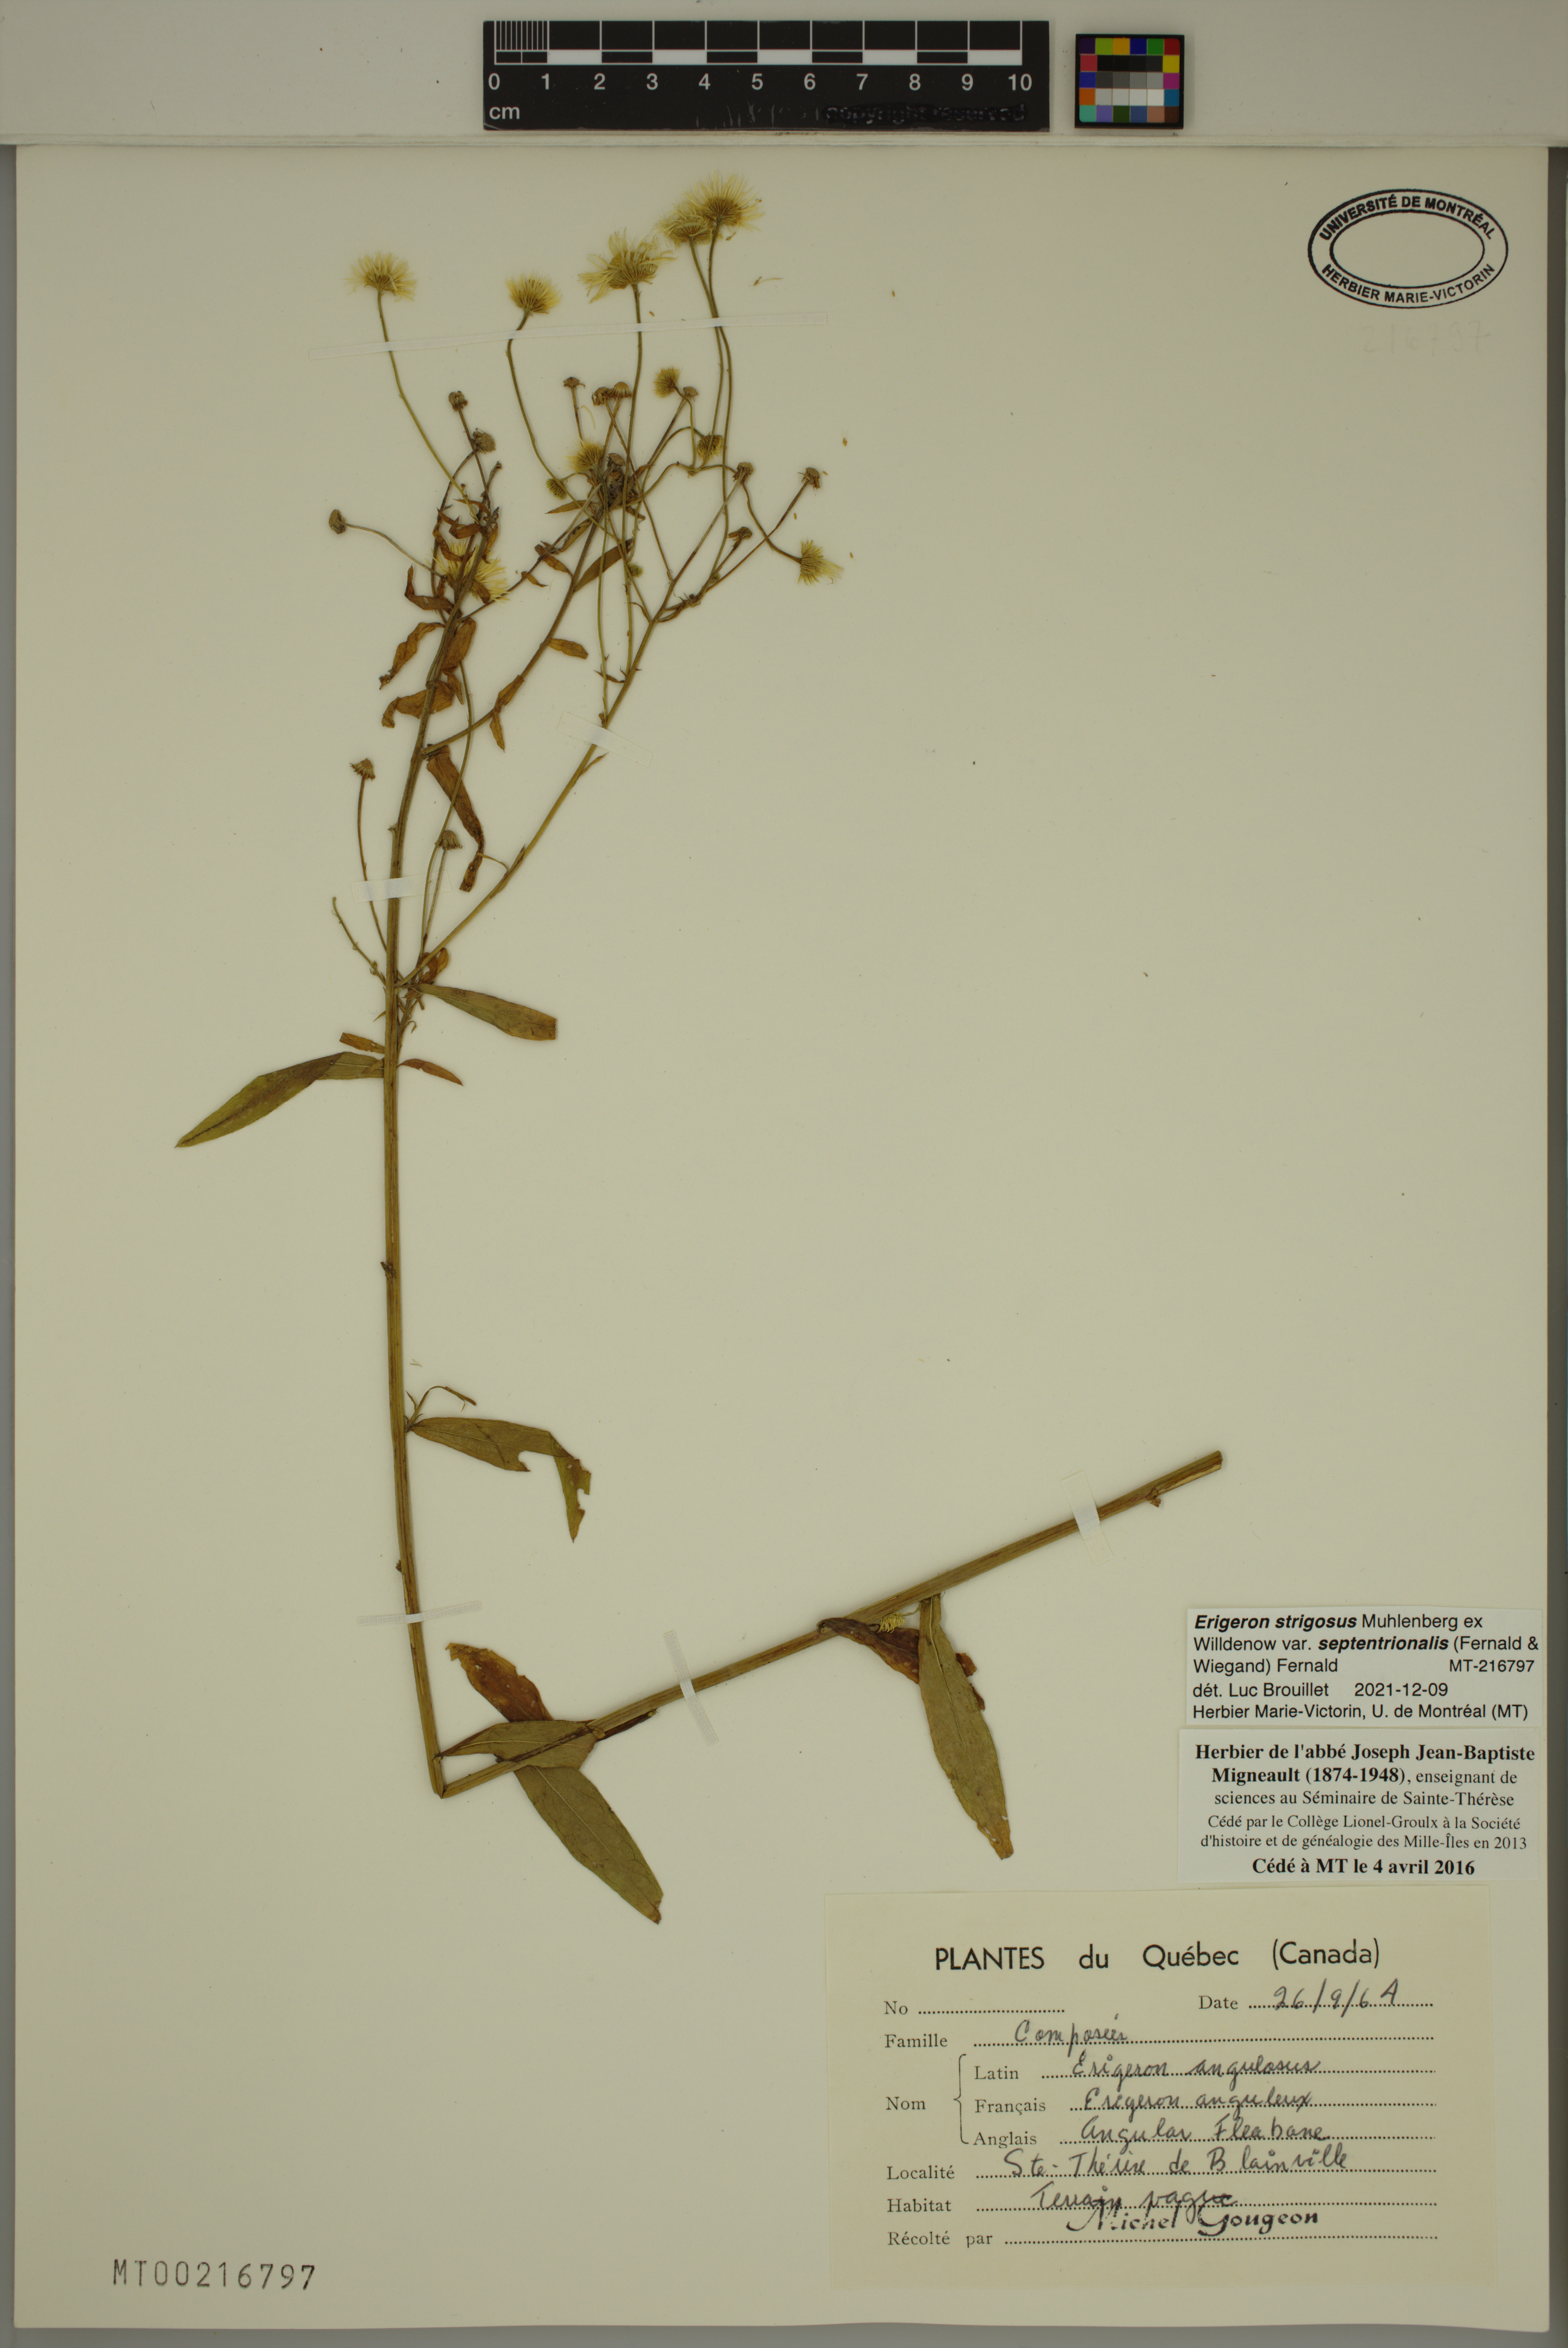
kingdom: Plantae
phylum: Tracheophyta
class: Magnoliopsida
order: Asterales
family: Asteraceae
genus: Erigeron
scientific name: Erigeron annuus
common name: Tall fleabane
